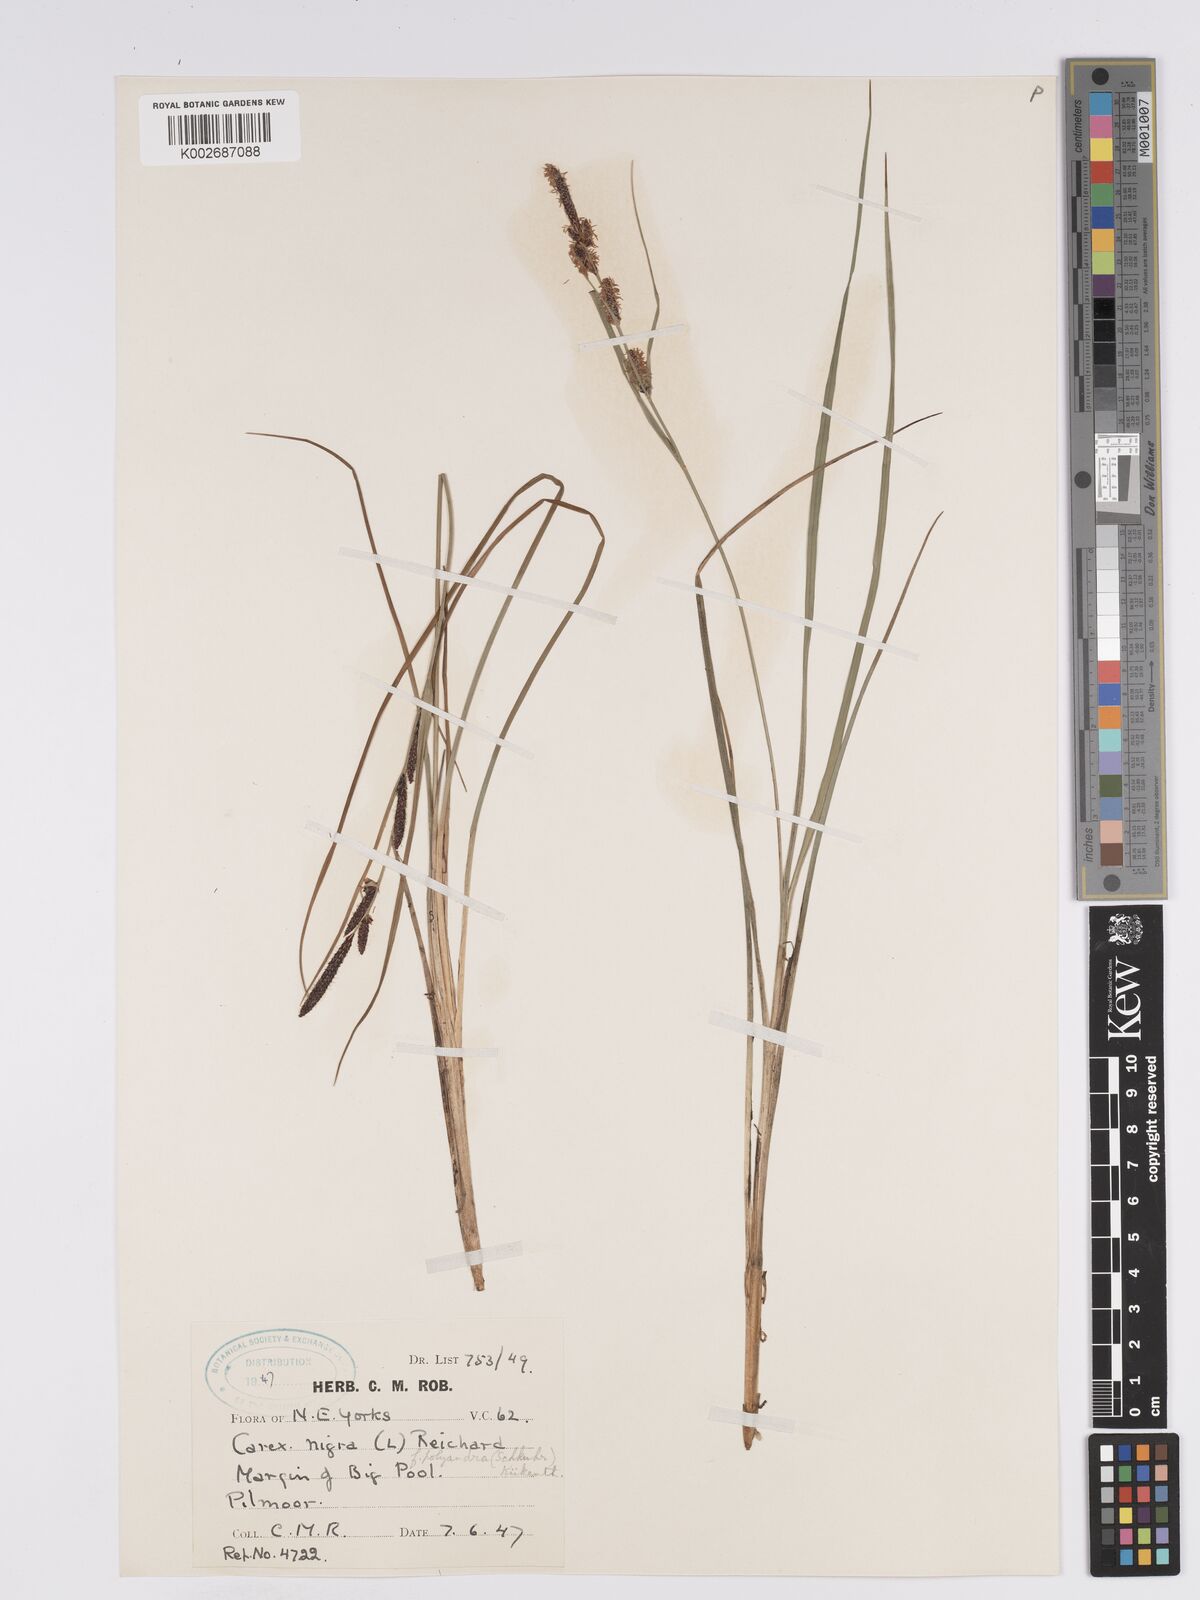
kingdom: Plantae
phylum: Tracheophyta
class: Liliopsida
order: Poales
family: Cyperaceae
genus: Carex
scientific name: Carex nigra
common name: Common sedge
